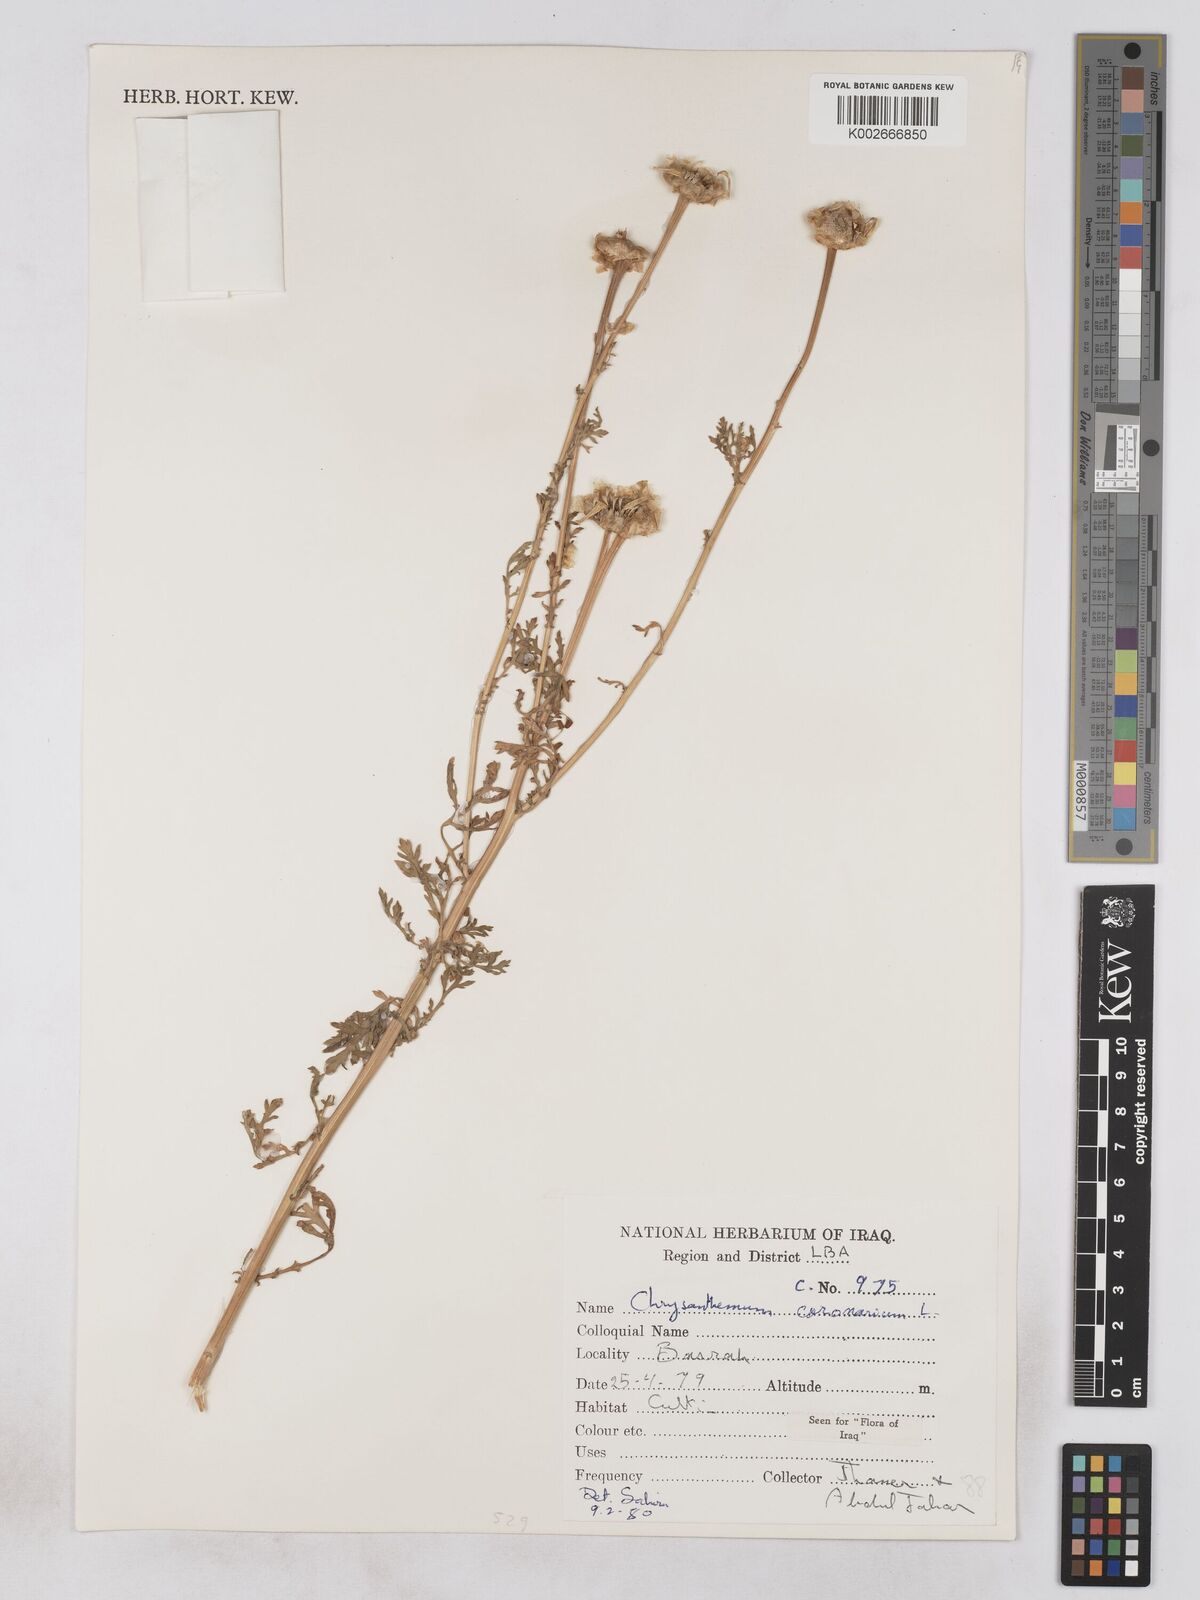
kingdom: Plantae
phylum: Tracheophyta
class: Magnoliopsida
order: Asterales
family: Asteraceae
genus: Glebionis
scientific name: Glebionis coronaria
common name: Crowndaisy
